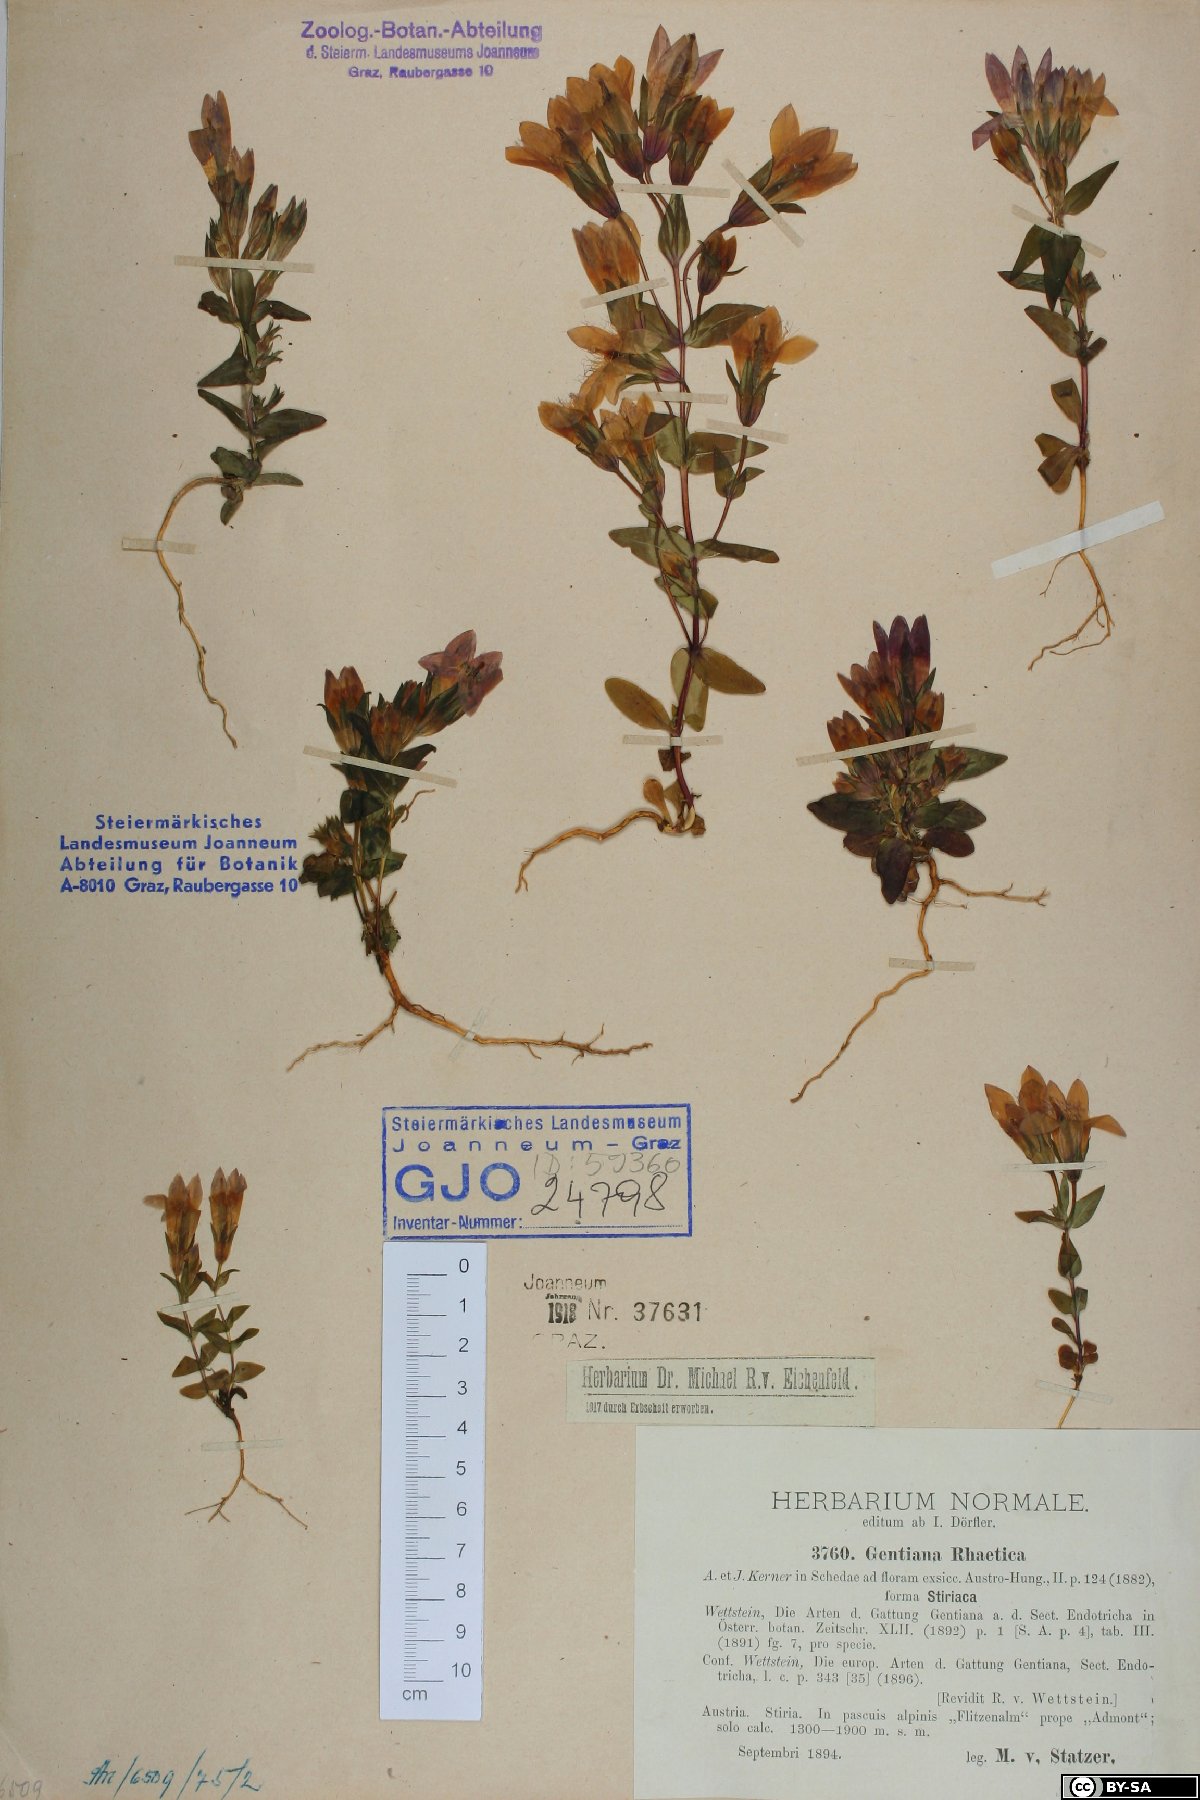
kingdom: Plantae
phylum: Tracheophyta
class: Magnoliopsida
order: Gentianales
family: Gentianaceae
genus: Gentianella
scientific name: Gentianella rhaetica
